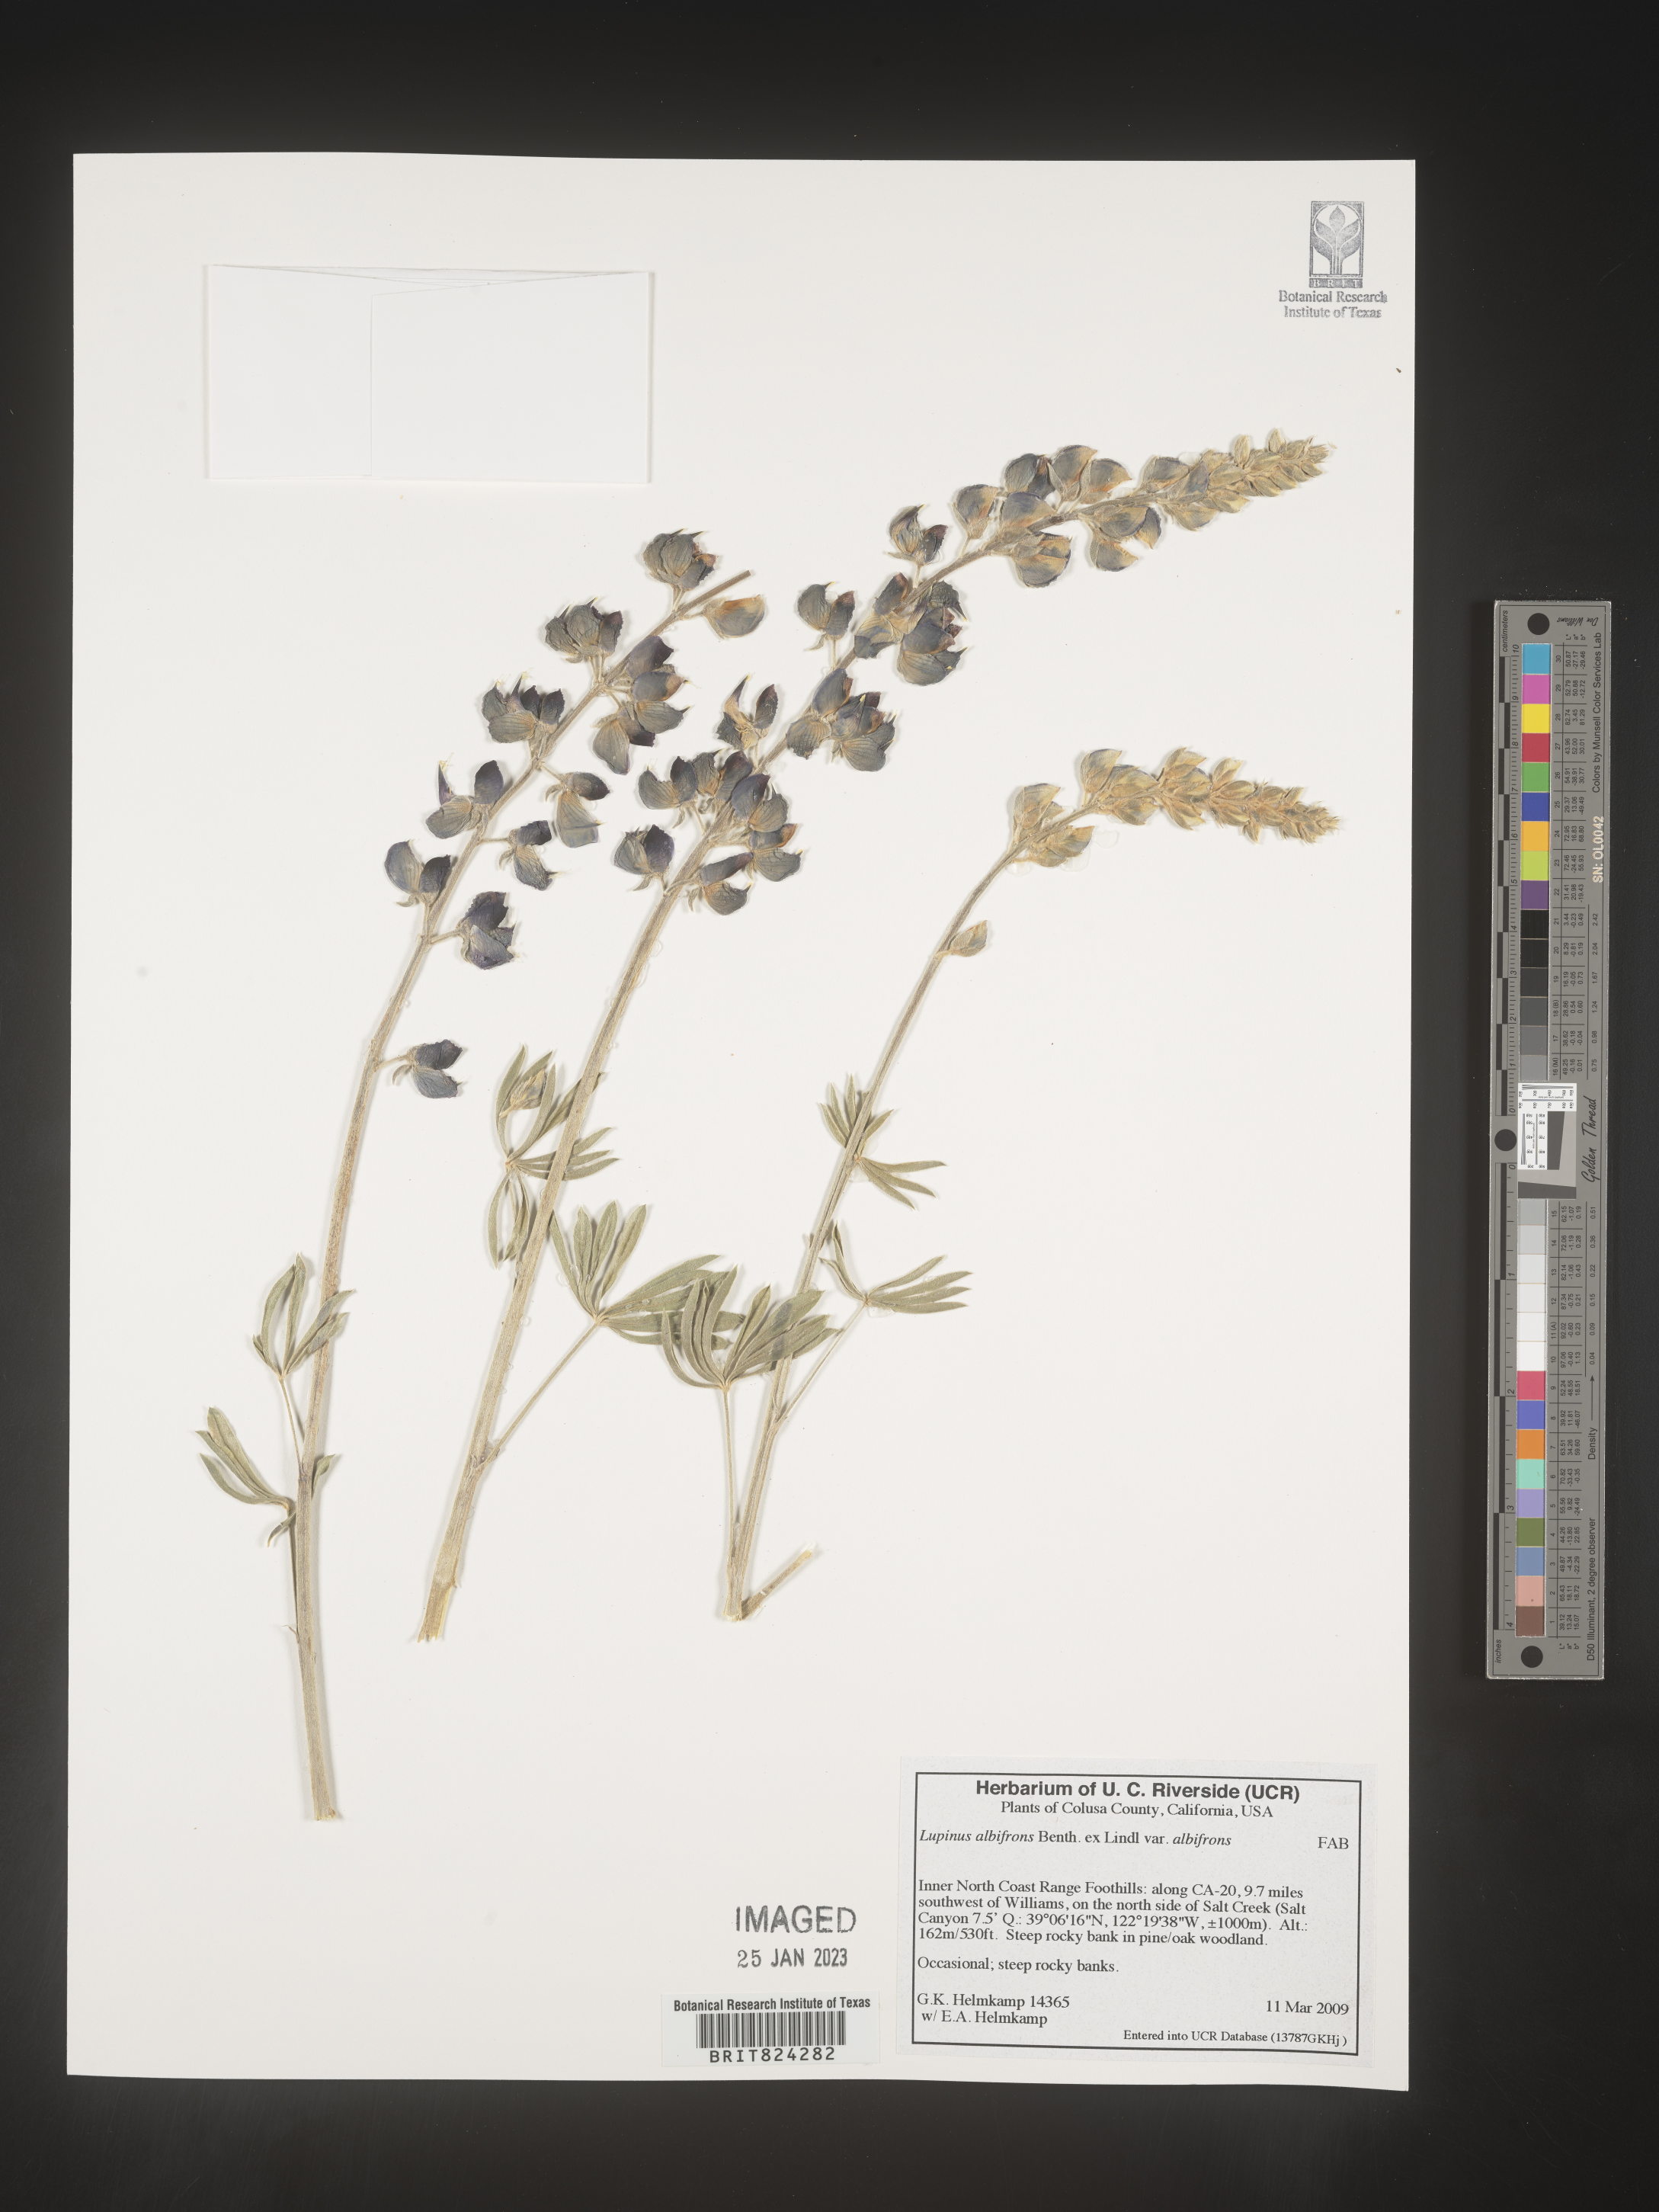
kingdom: Plantae
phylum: Tracheophyta
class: Magnoliopsida
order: Fabales
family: Fabaceae
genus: Lupinus
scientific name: Lupinus albifrons
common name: Foothill lupine
